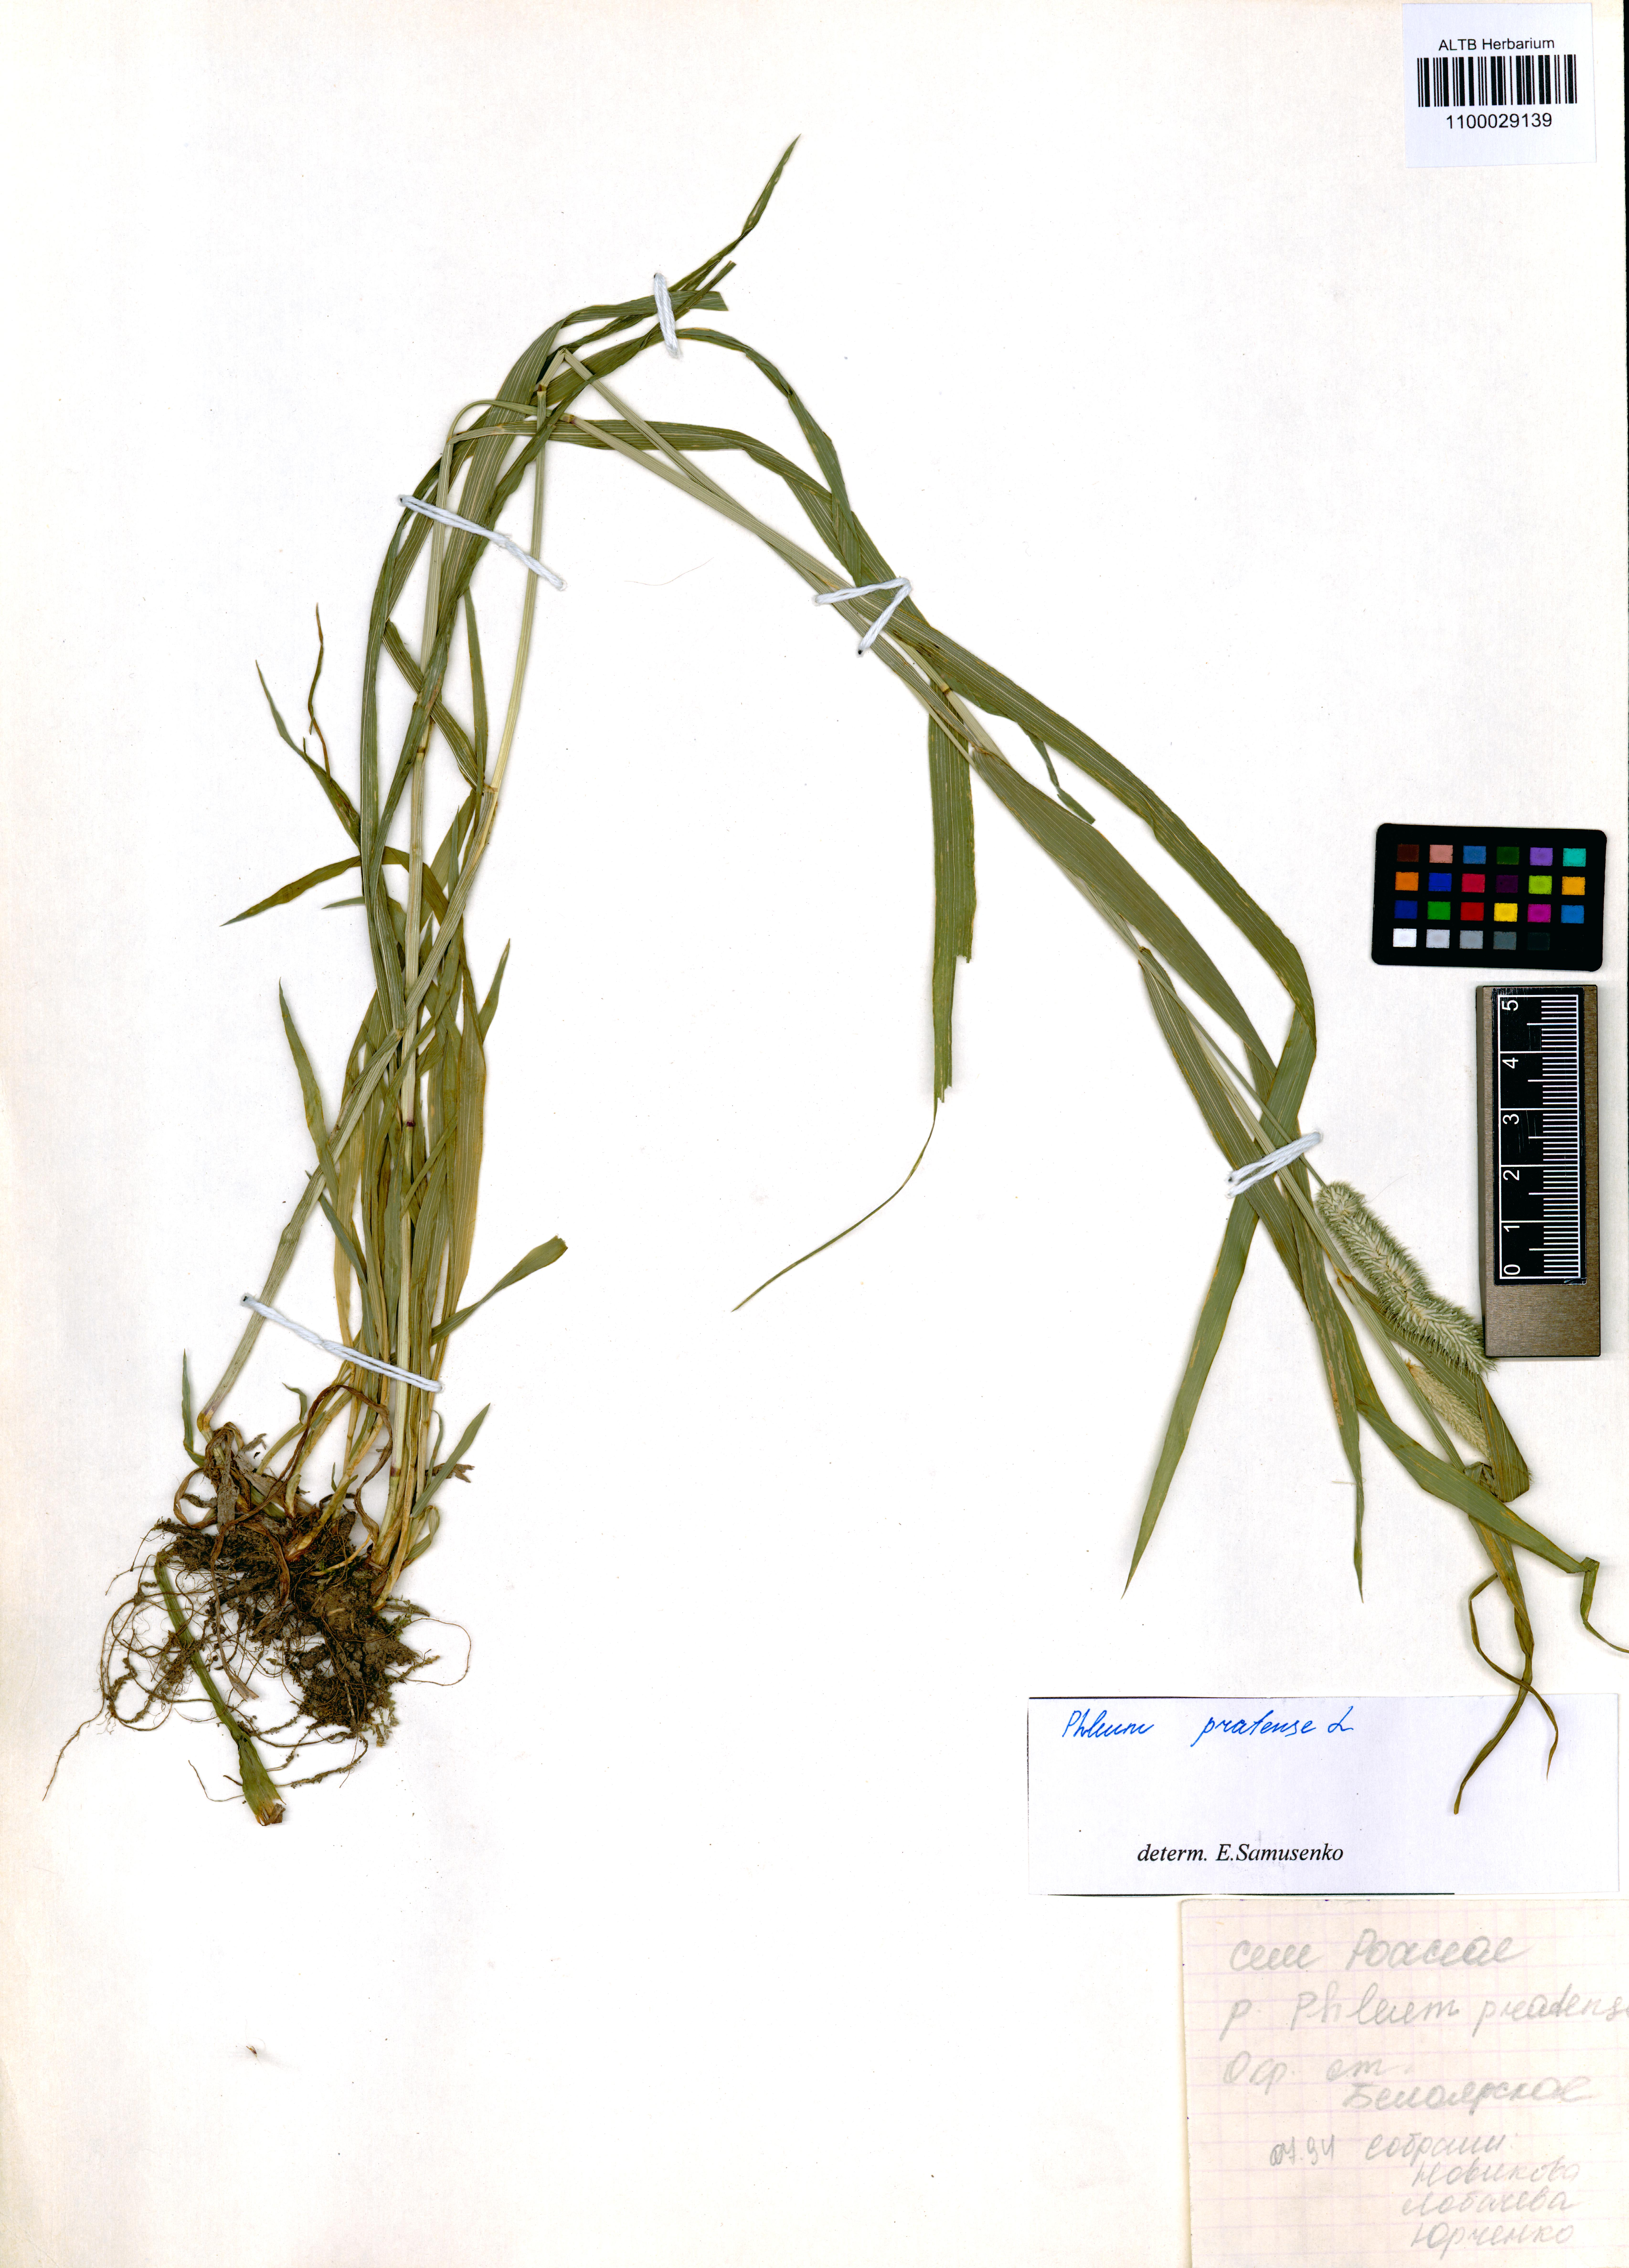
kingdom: Plantae
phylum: Tracheophyta
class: Liliopsida
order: Poales
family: Poaceae
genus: Phleum
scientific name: Phleum pratense
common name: Timothy grass
